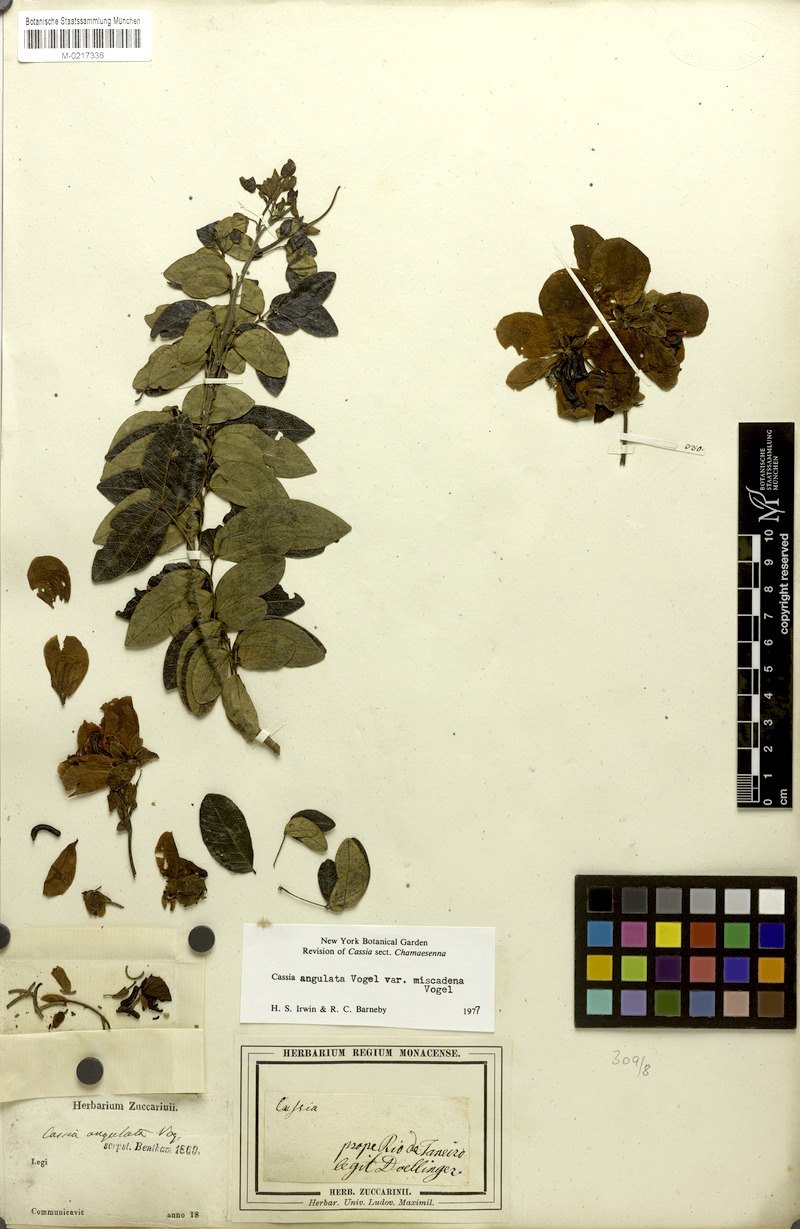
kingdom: Plantae
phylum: Tracheophyta
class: Magnoliopsida
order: Fabales
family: Fabaceae
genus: Senna
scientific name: Senna angulata
